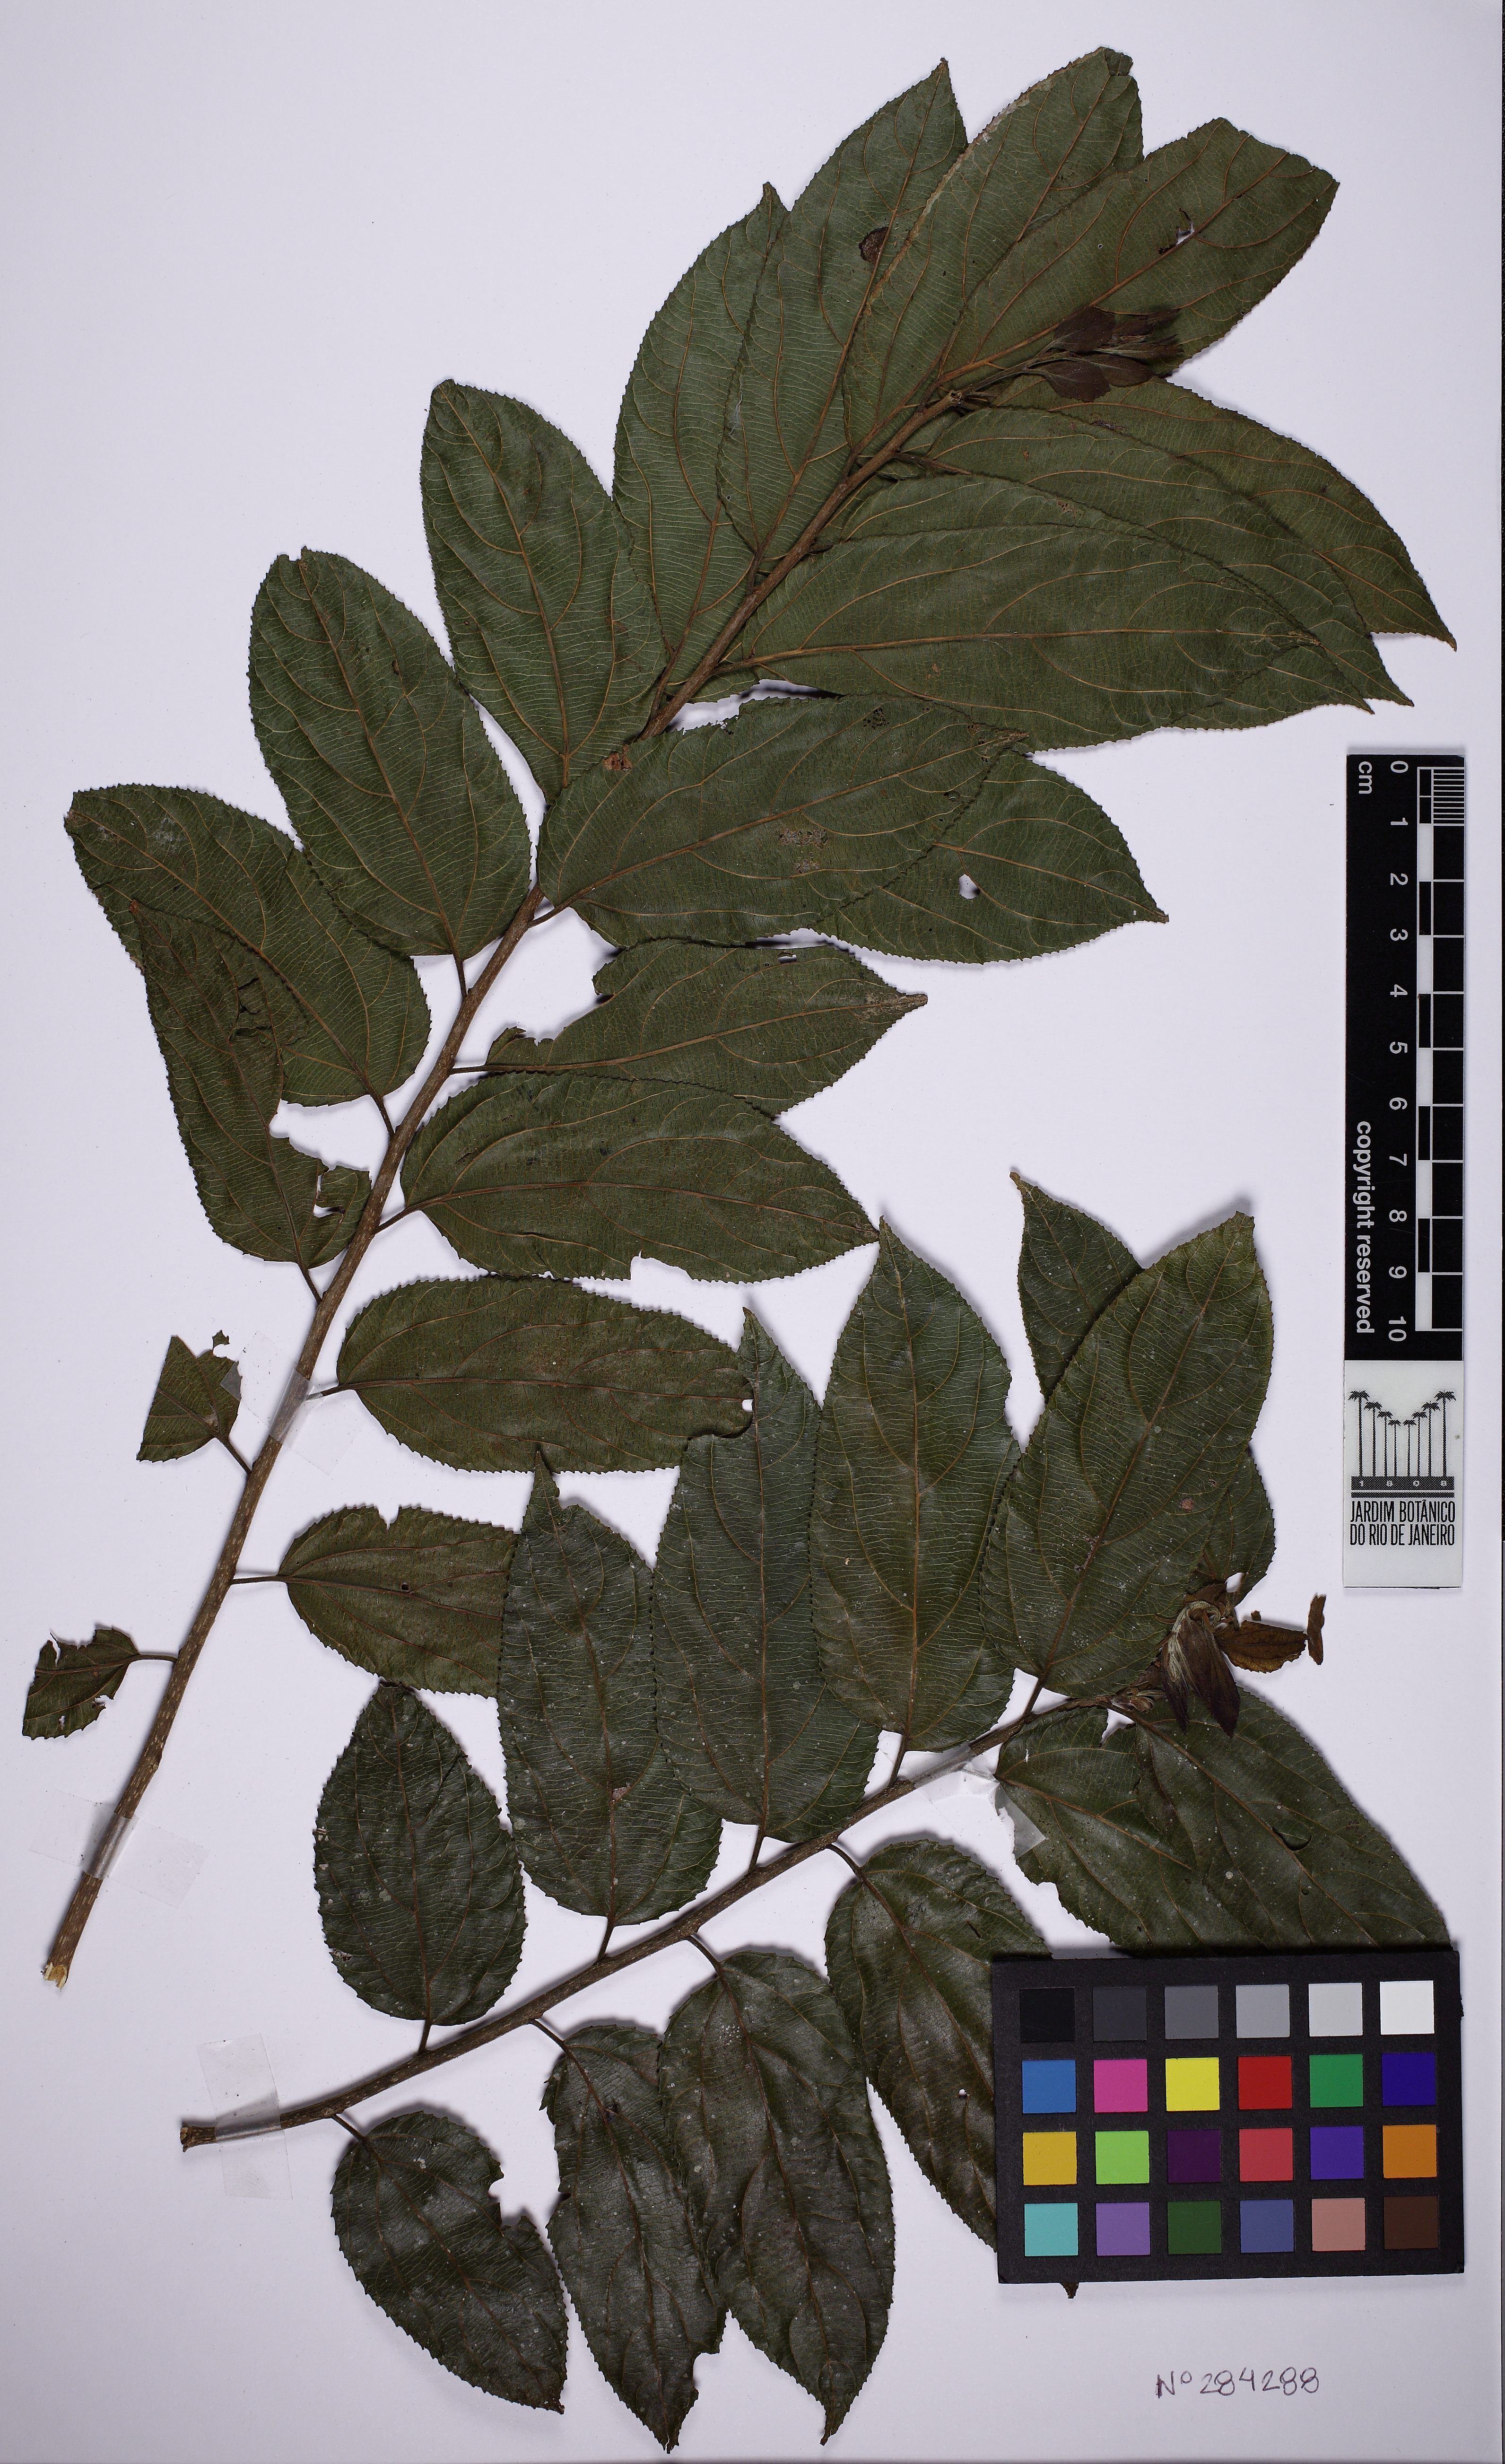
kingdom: Plantae
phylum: Tracheophyta
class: Magnoliopsida
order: Malpighiales
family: Salicaceae
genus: Casearia
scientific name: Casearia obliqua
